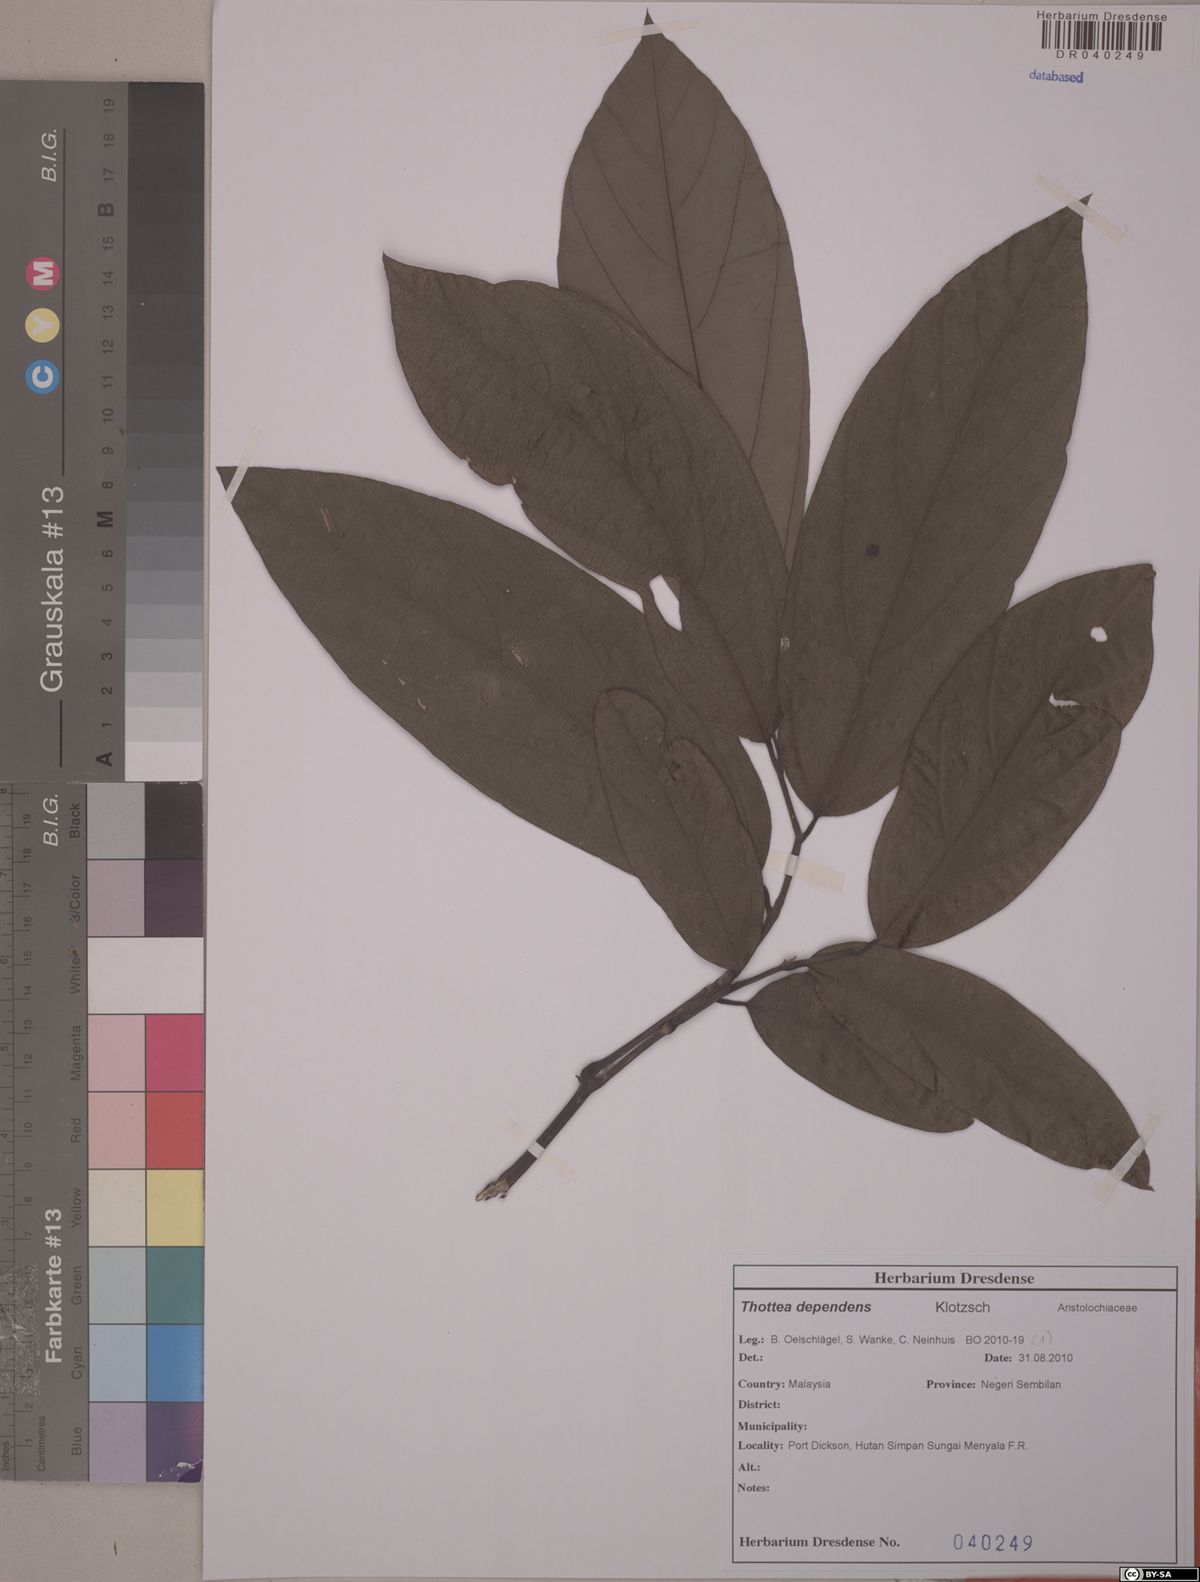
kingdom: Plantae
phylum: Tracheophyta
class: Magnoliopsida
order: Piperales
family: Aristolochiaceae
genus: Thottea
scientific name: Thottea dependens
